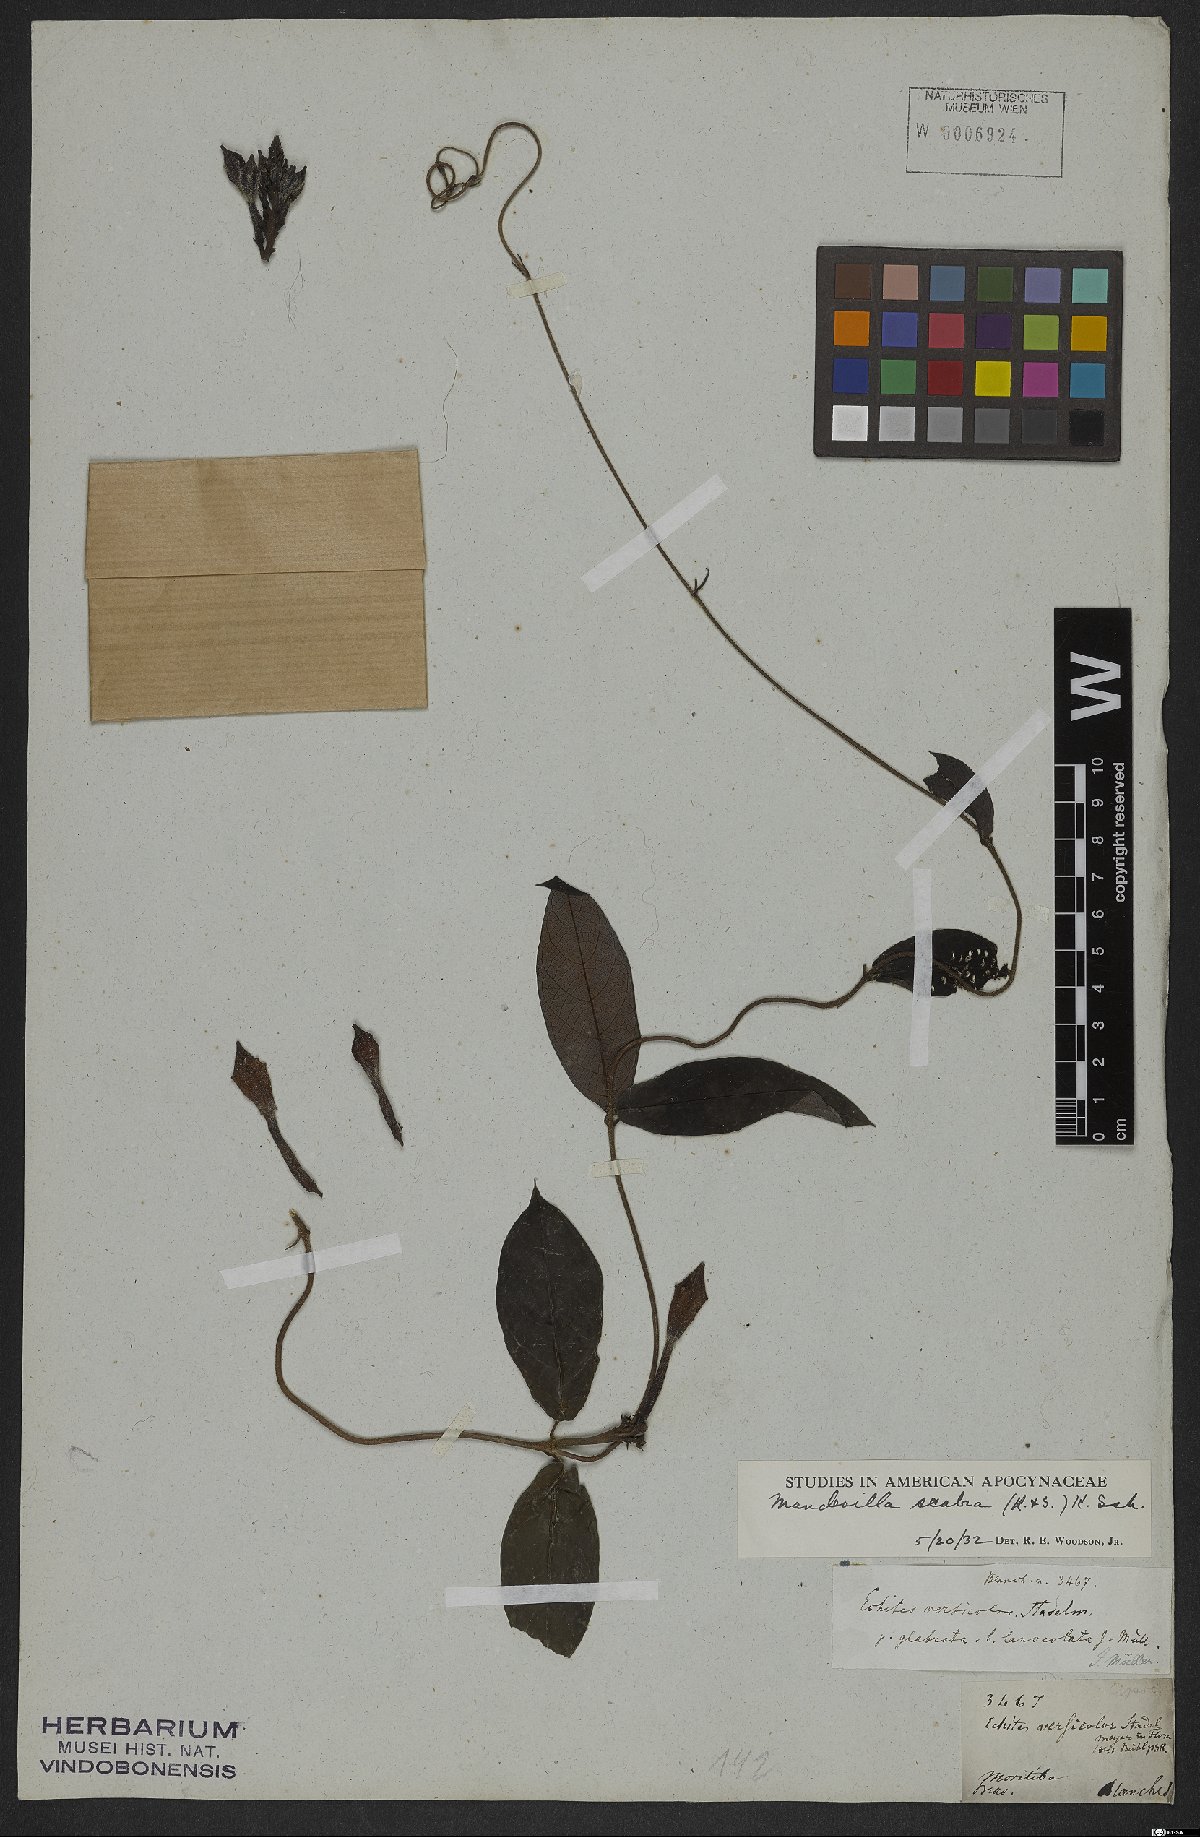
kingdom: Plantae
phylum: Tracheophyta
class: Magnoliopsida
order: Gentianales
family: Apocynaceae
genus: Mandevilla
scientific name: Mandevilla scabra
